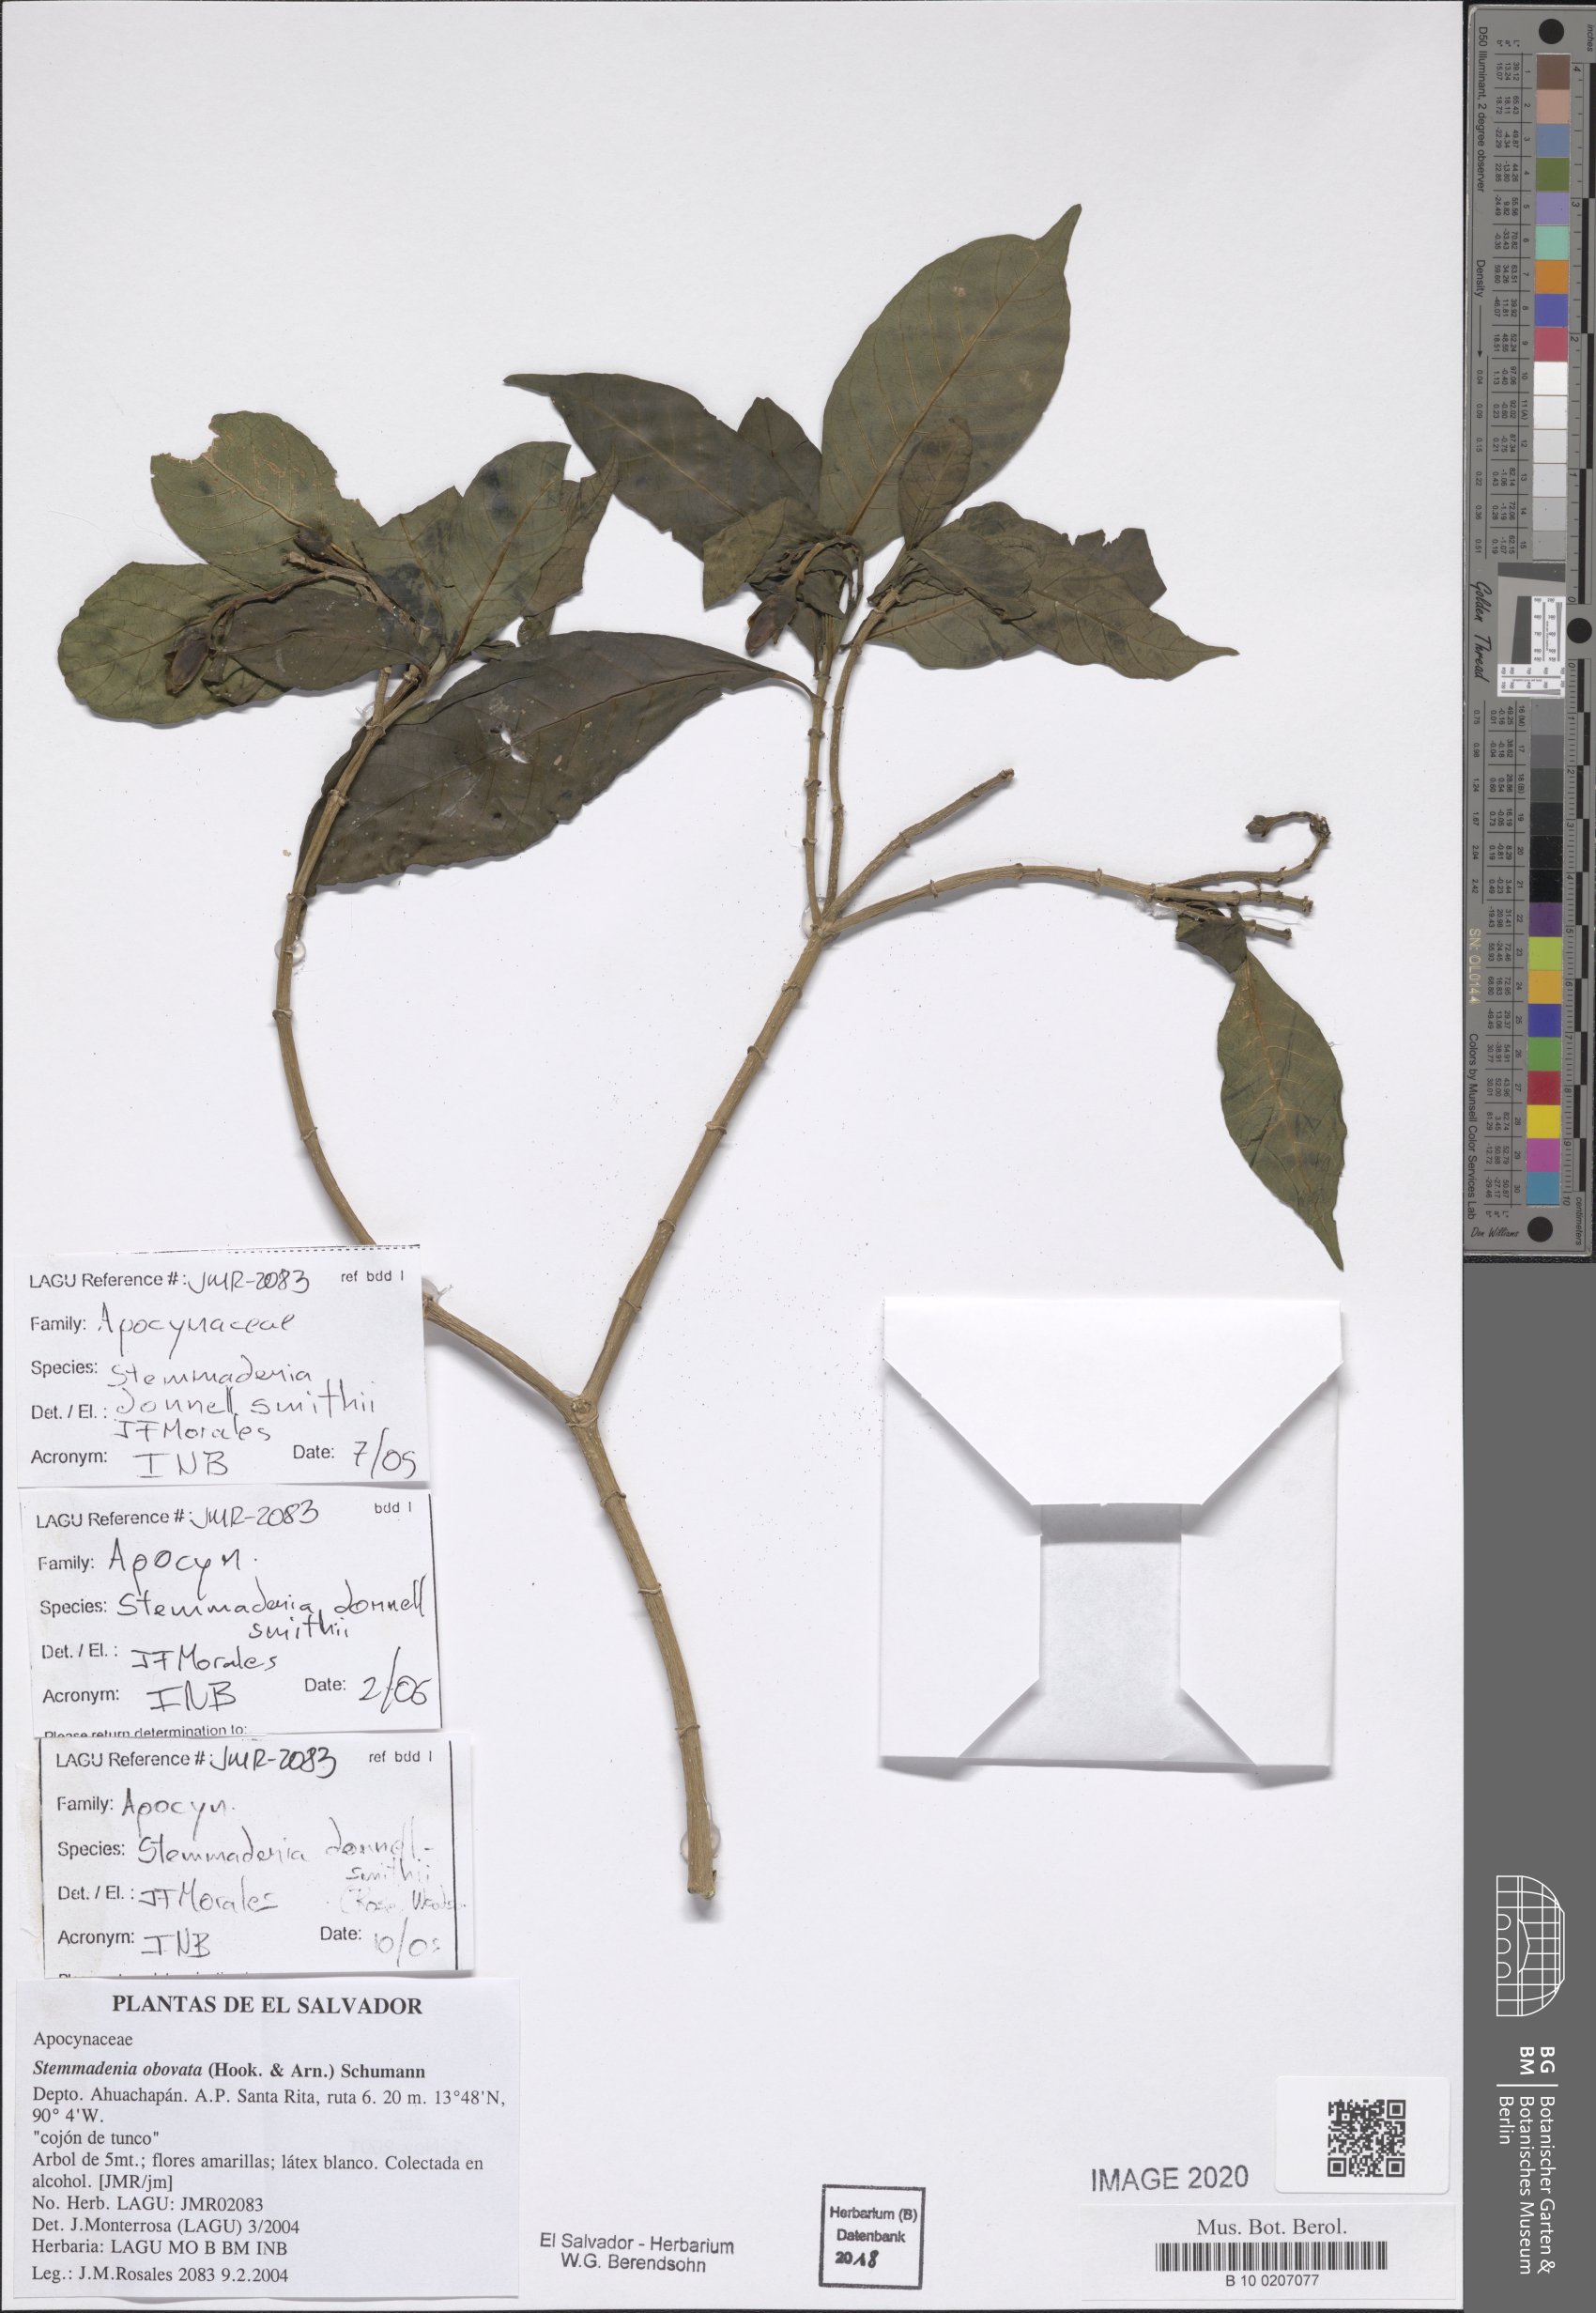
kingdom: Plantae
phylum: Tracheophyta
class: Magnoliopsida
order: Gentianales
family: Apocynaceae
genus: Tabernaemontana
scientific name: Tabernaemontana donnell-smithii
